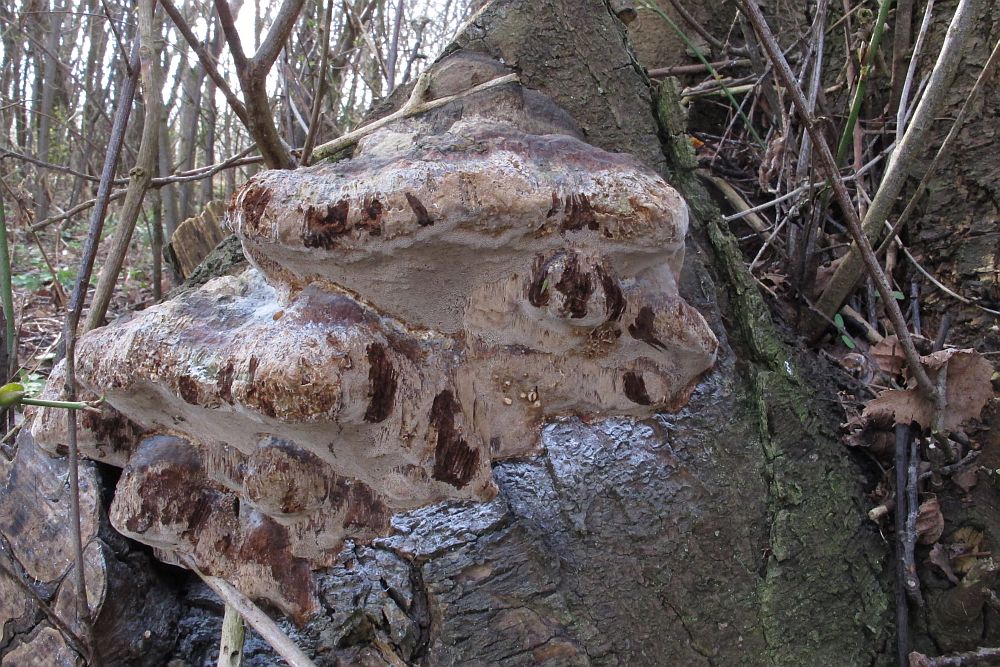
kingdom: Fungi
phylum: Basidiomycota
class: Agaricomycetes
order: Hymenochaetales
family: Hymenochaetaceae
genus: Phellinus
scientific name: Phellinus pomaceus
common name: blomme-ildporesvamp
